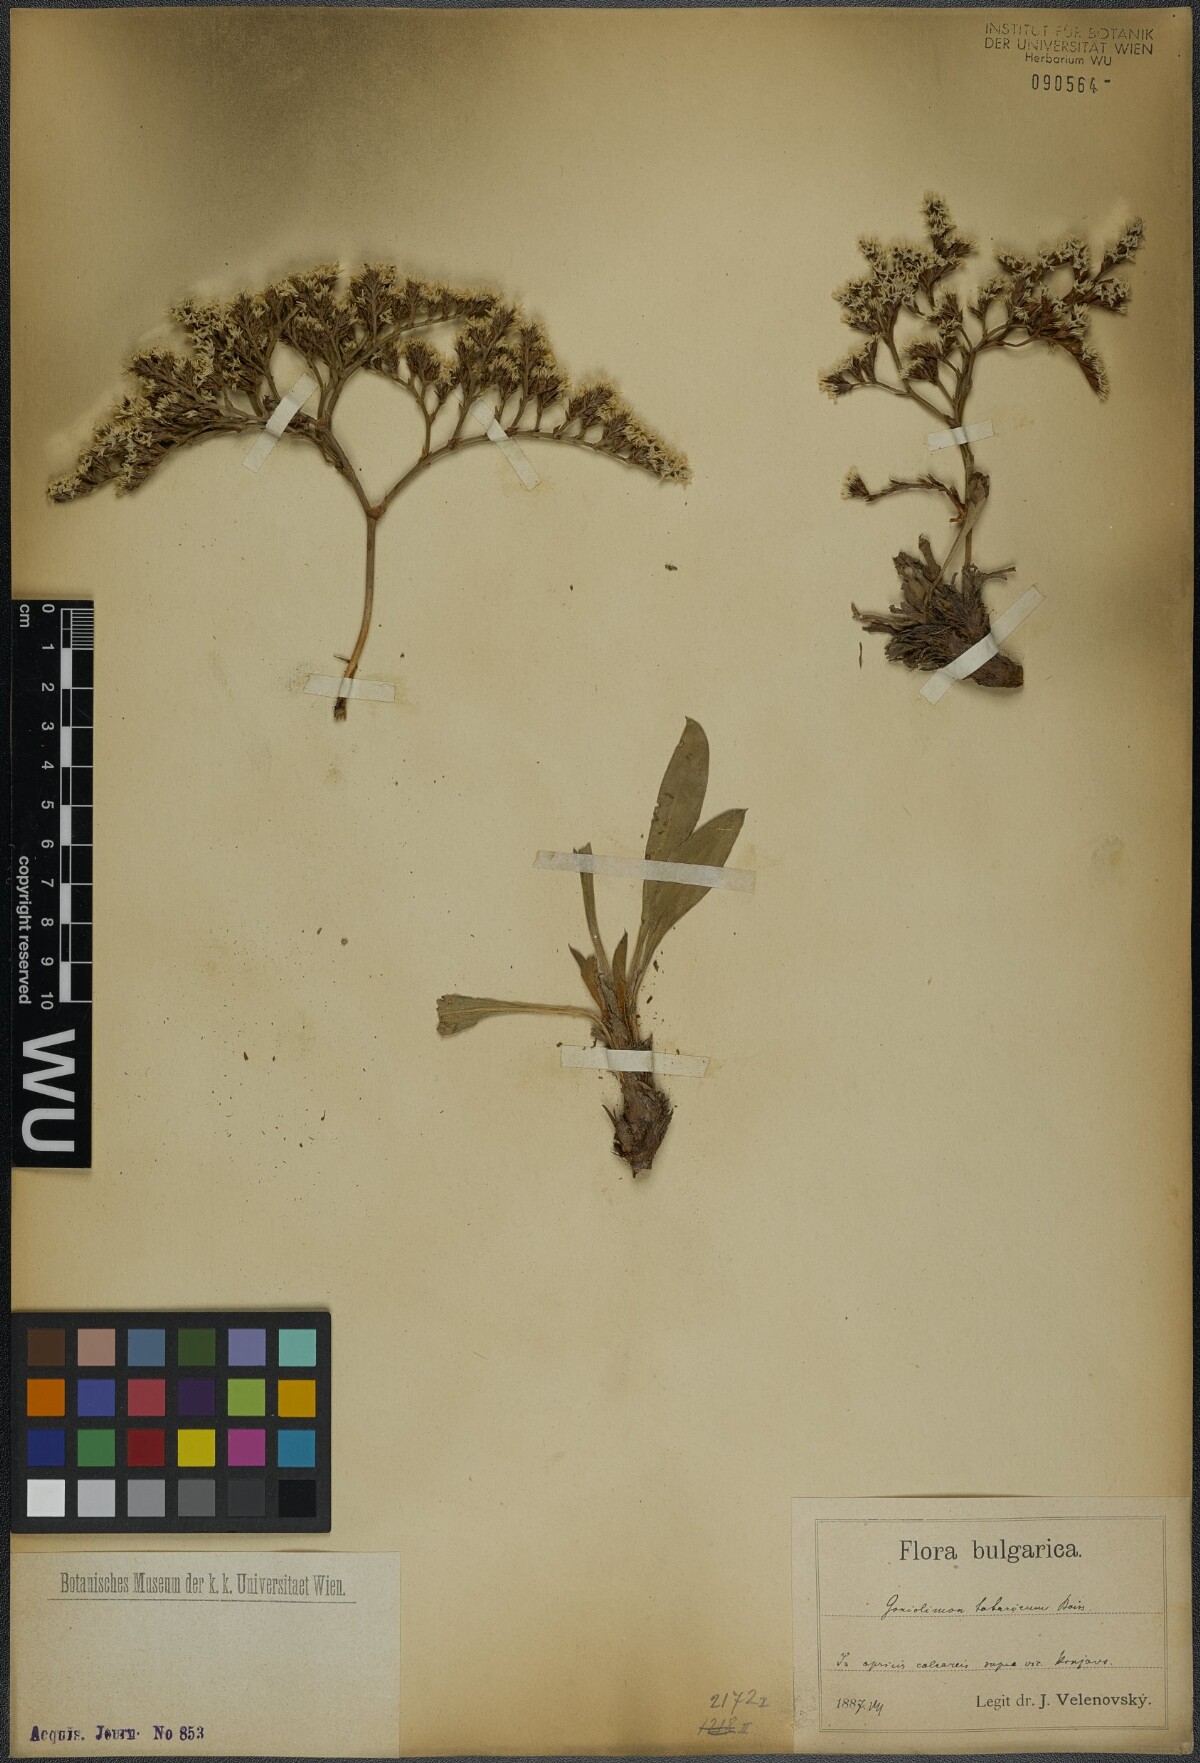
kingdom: Plantae
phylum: Tracheophyta
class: Magnoliopsida
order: Caryophyllales
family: Plumbaginaceae
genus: Goniolimon
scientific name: Goniolimon tataricum
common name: Statice
